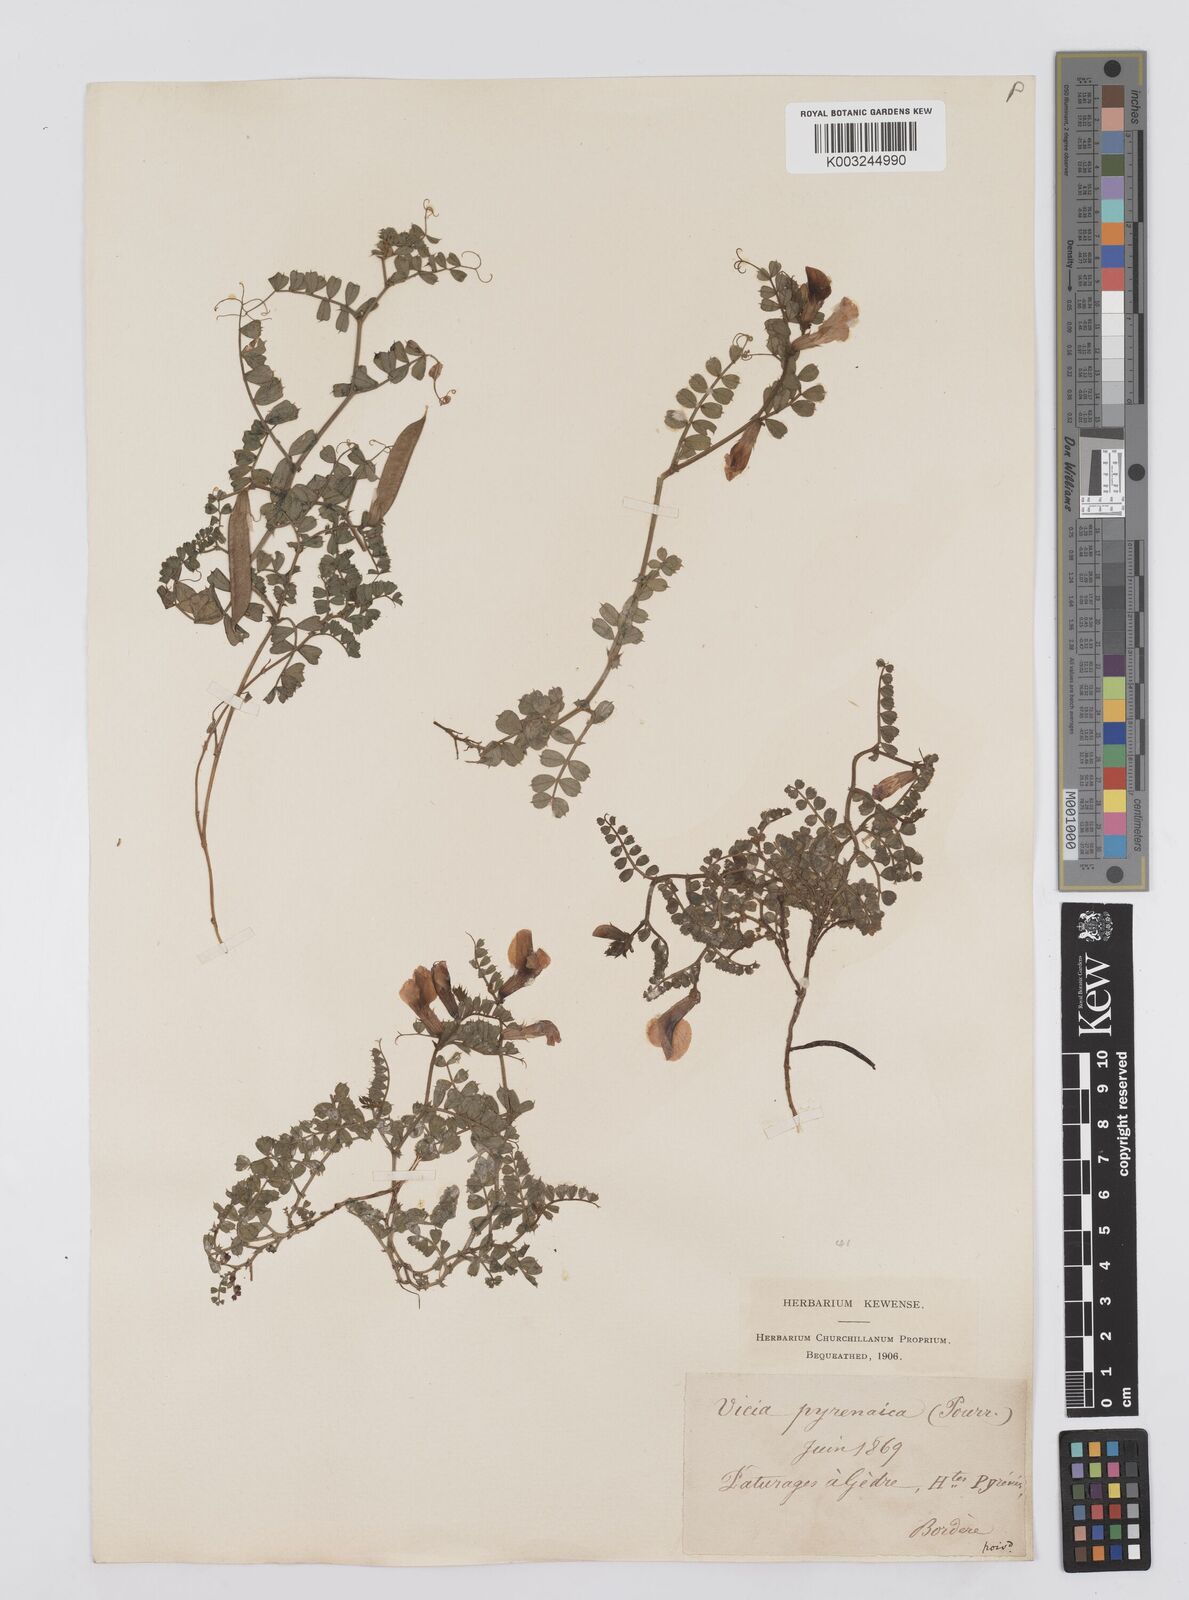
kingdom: Plantae
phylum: Tracheophyta
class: Magnoliopsida
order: Fabales
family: Fabaceae
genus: Vicia
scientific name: Vicia pyrenaica
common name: Pyrenean vetch
